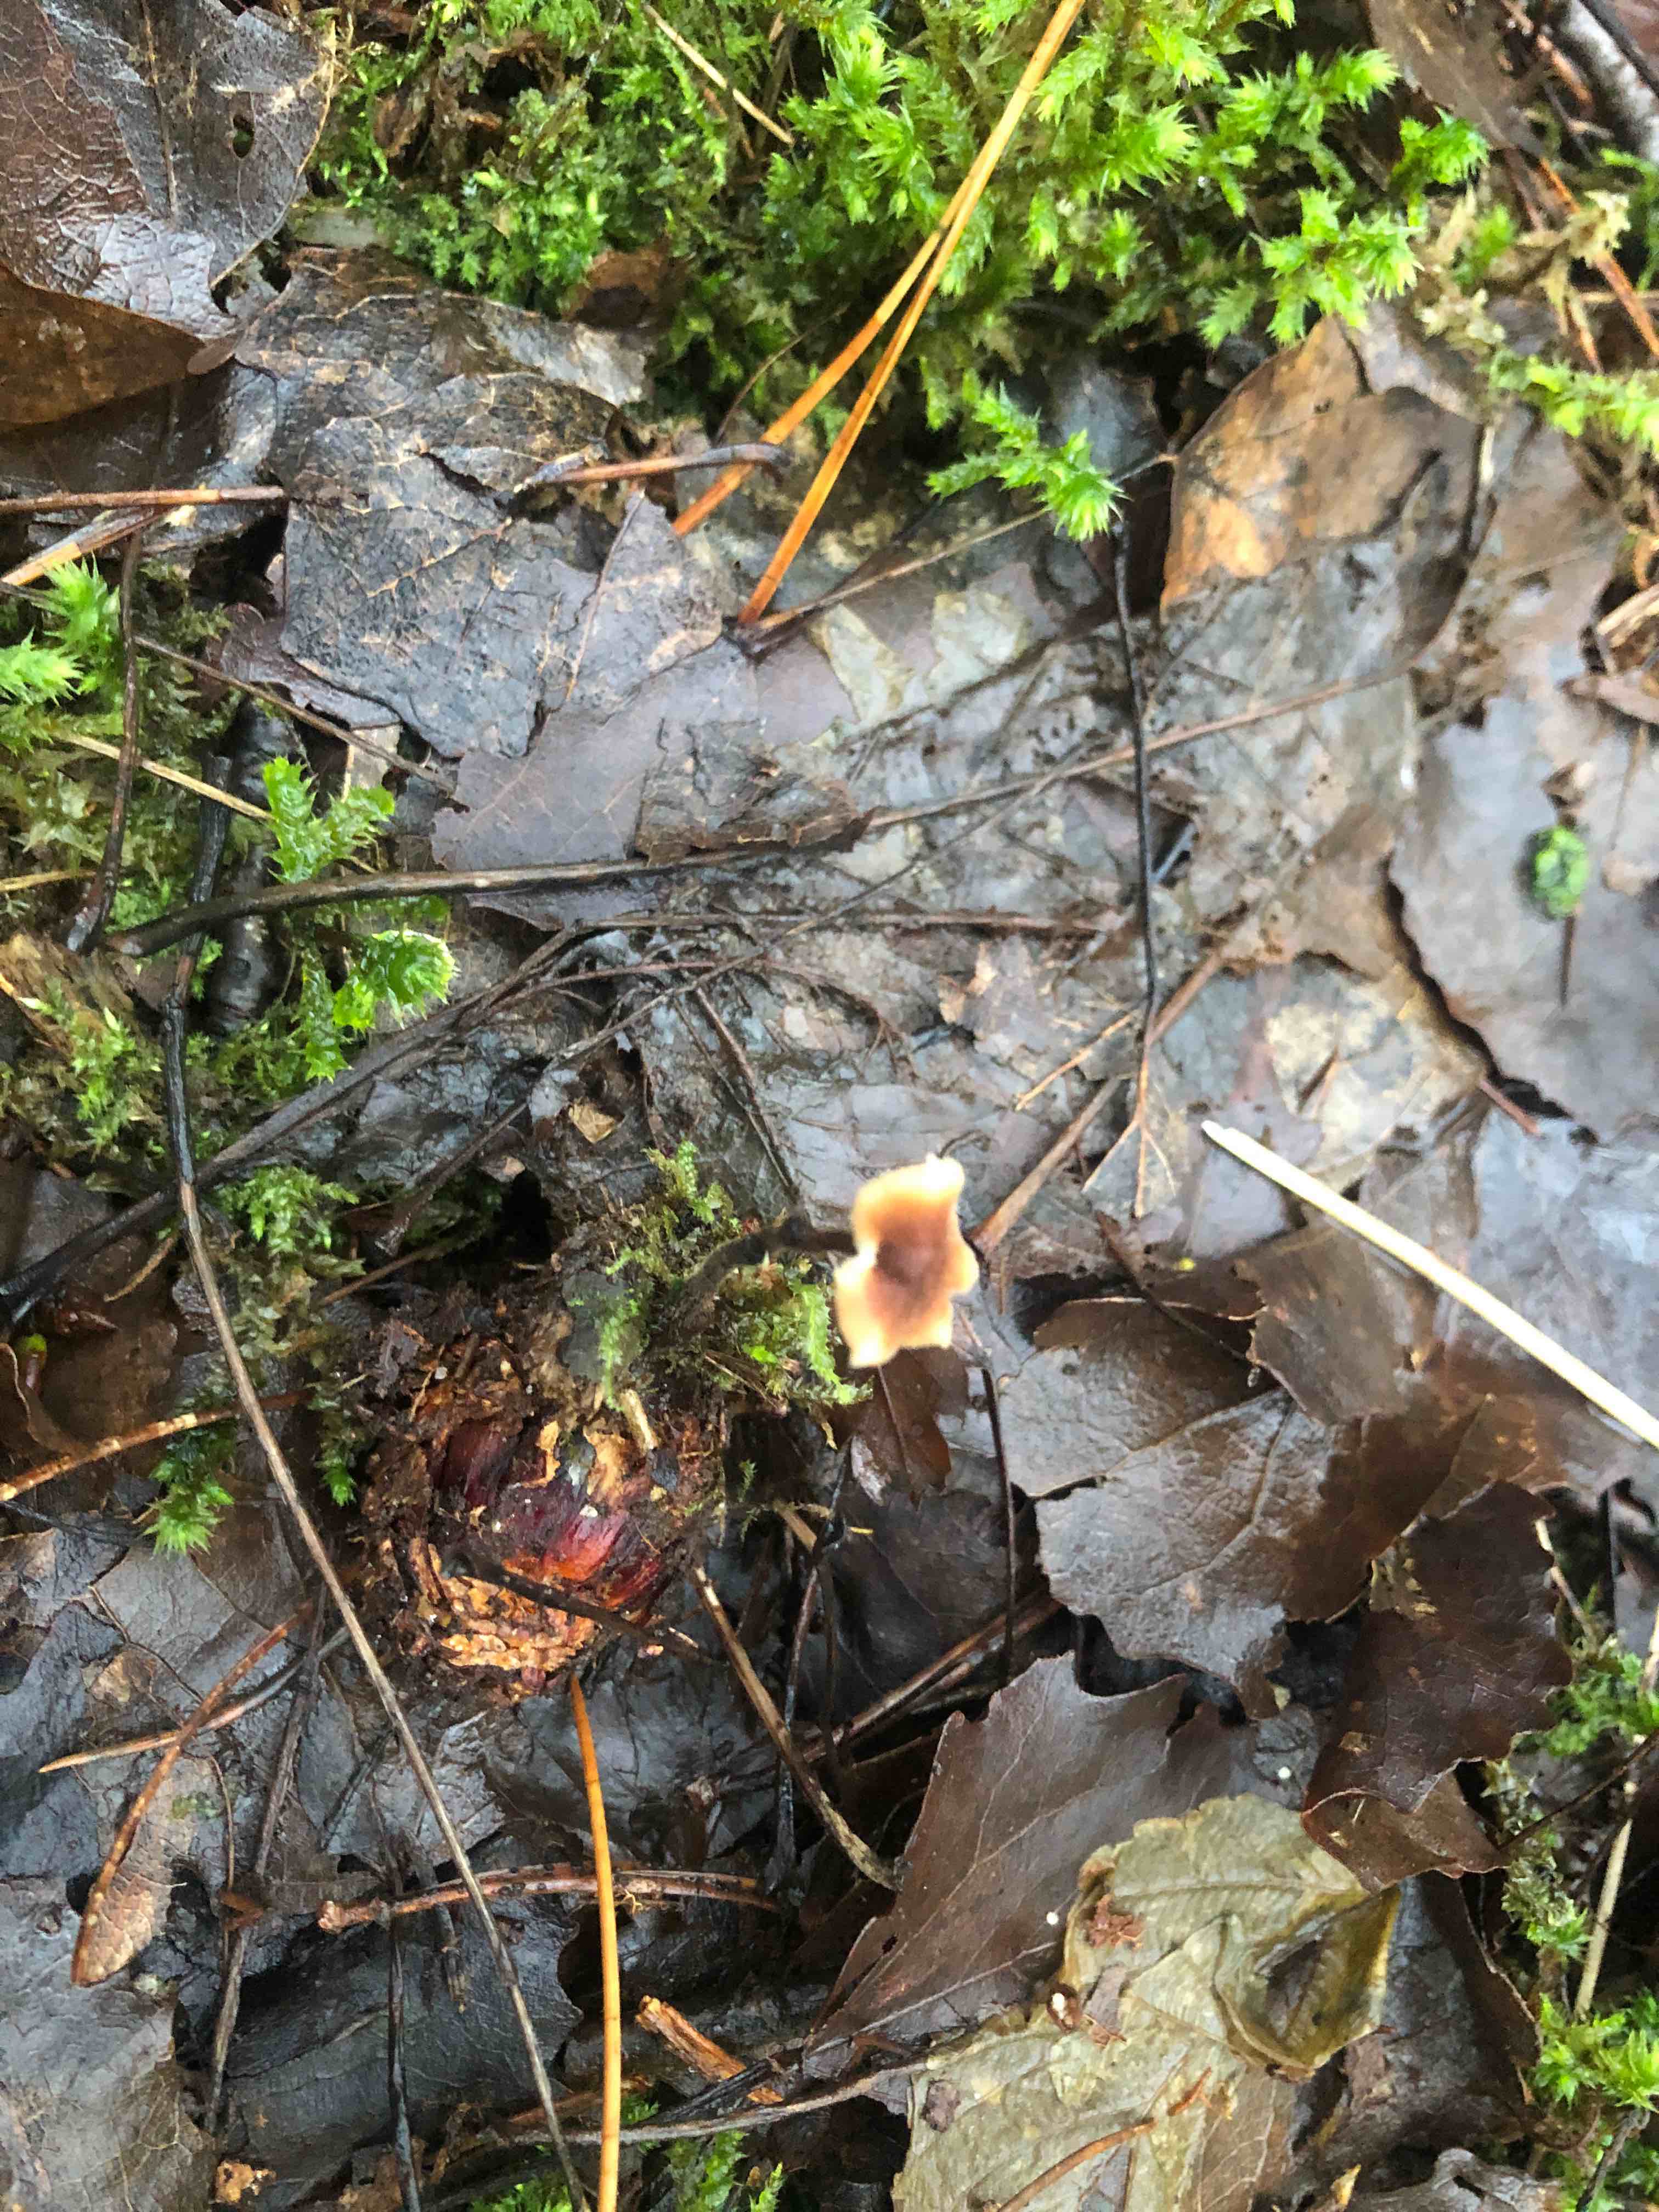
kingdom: Fungi
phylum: Basidiomycota
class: Agaricomycetes
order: Russulales
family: Auriscalpiaceae
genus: Auriscalpium
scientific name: Auriscalpium vulgare
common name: koglepigsvamp
